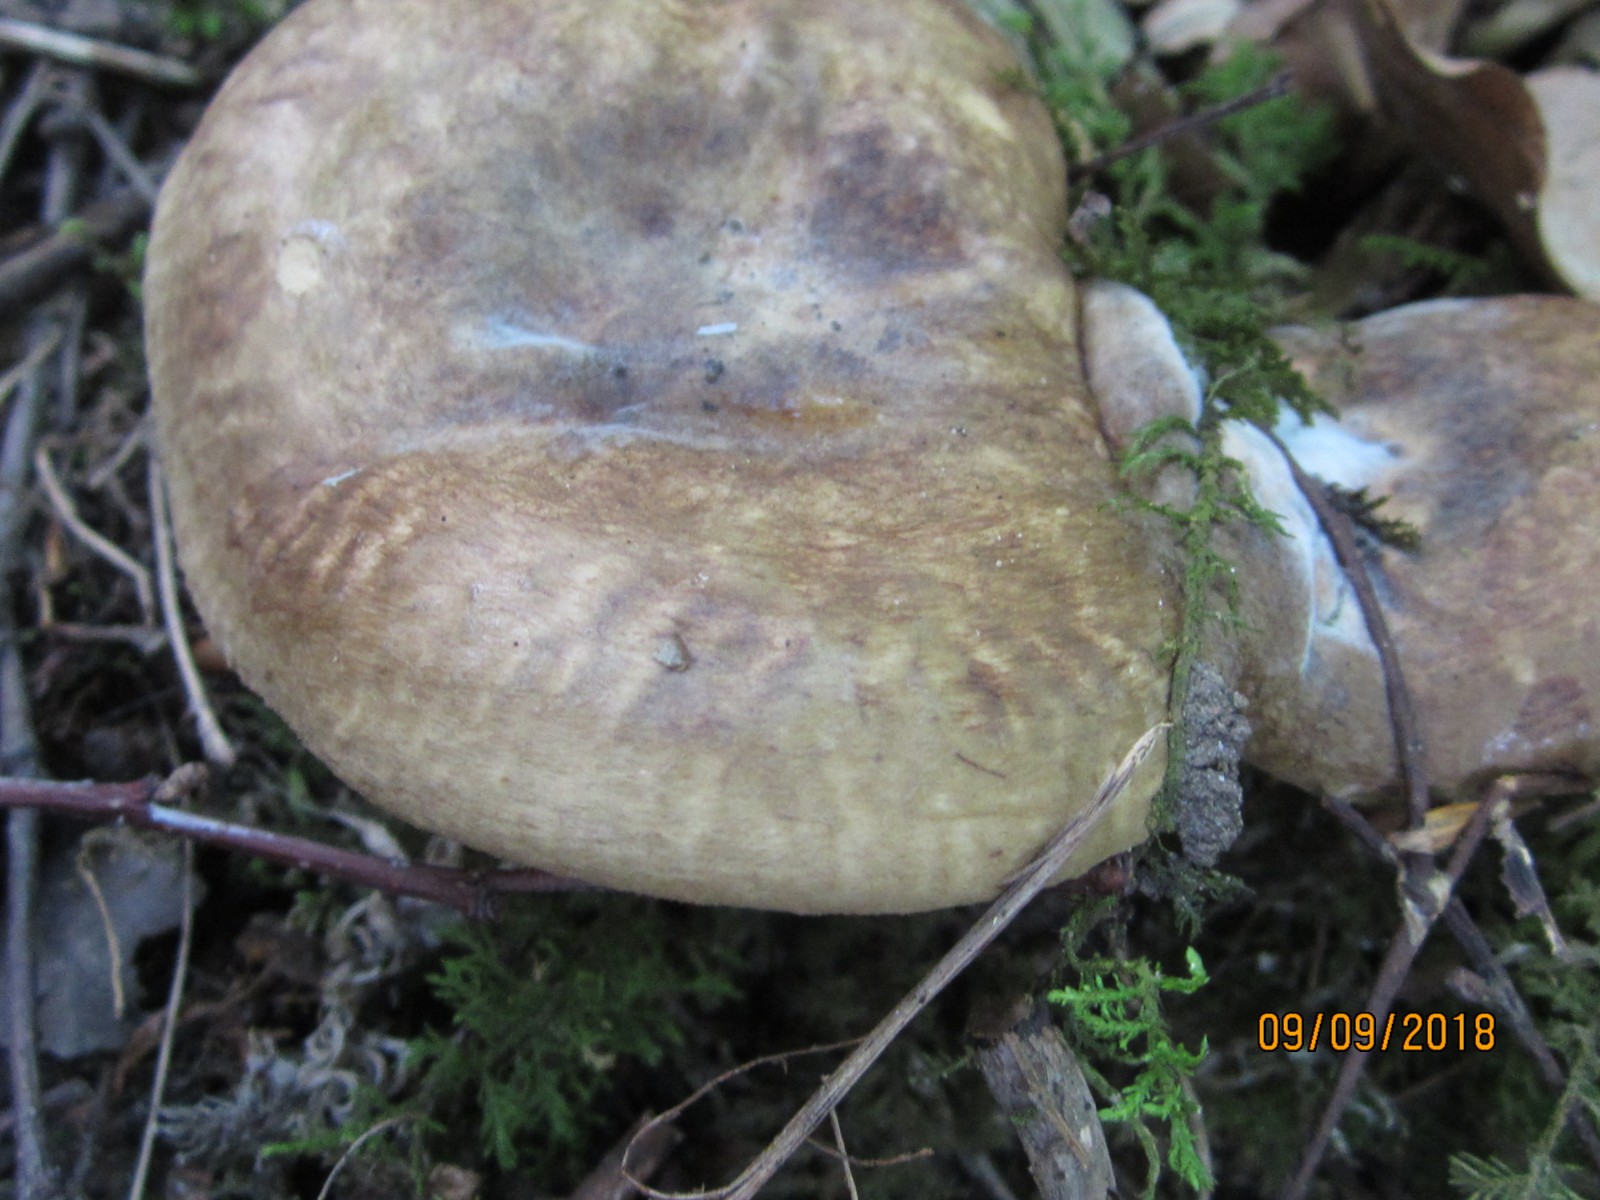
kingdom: Fungi
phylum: Basidiomycota
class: Agaricomycetes
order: Boletales
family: Paxillaceae
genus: Paxillus
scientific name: Paxillus rubicundulus
